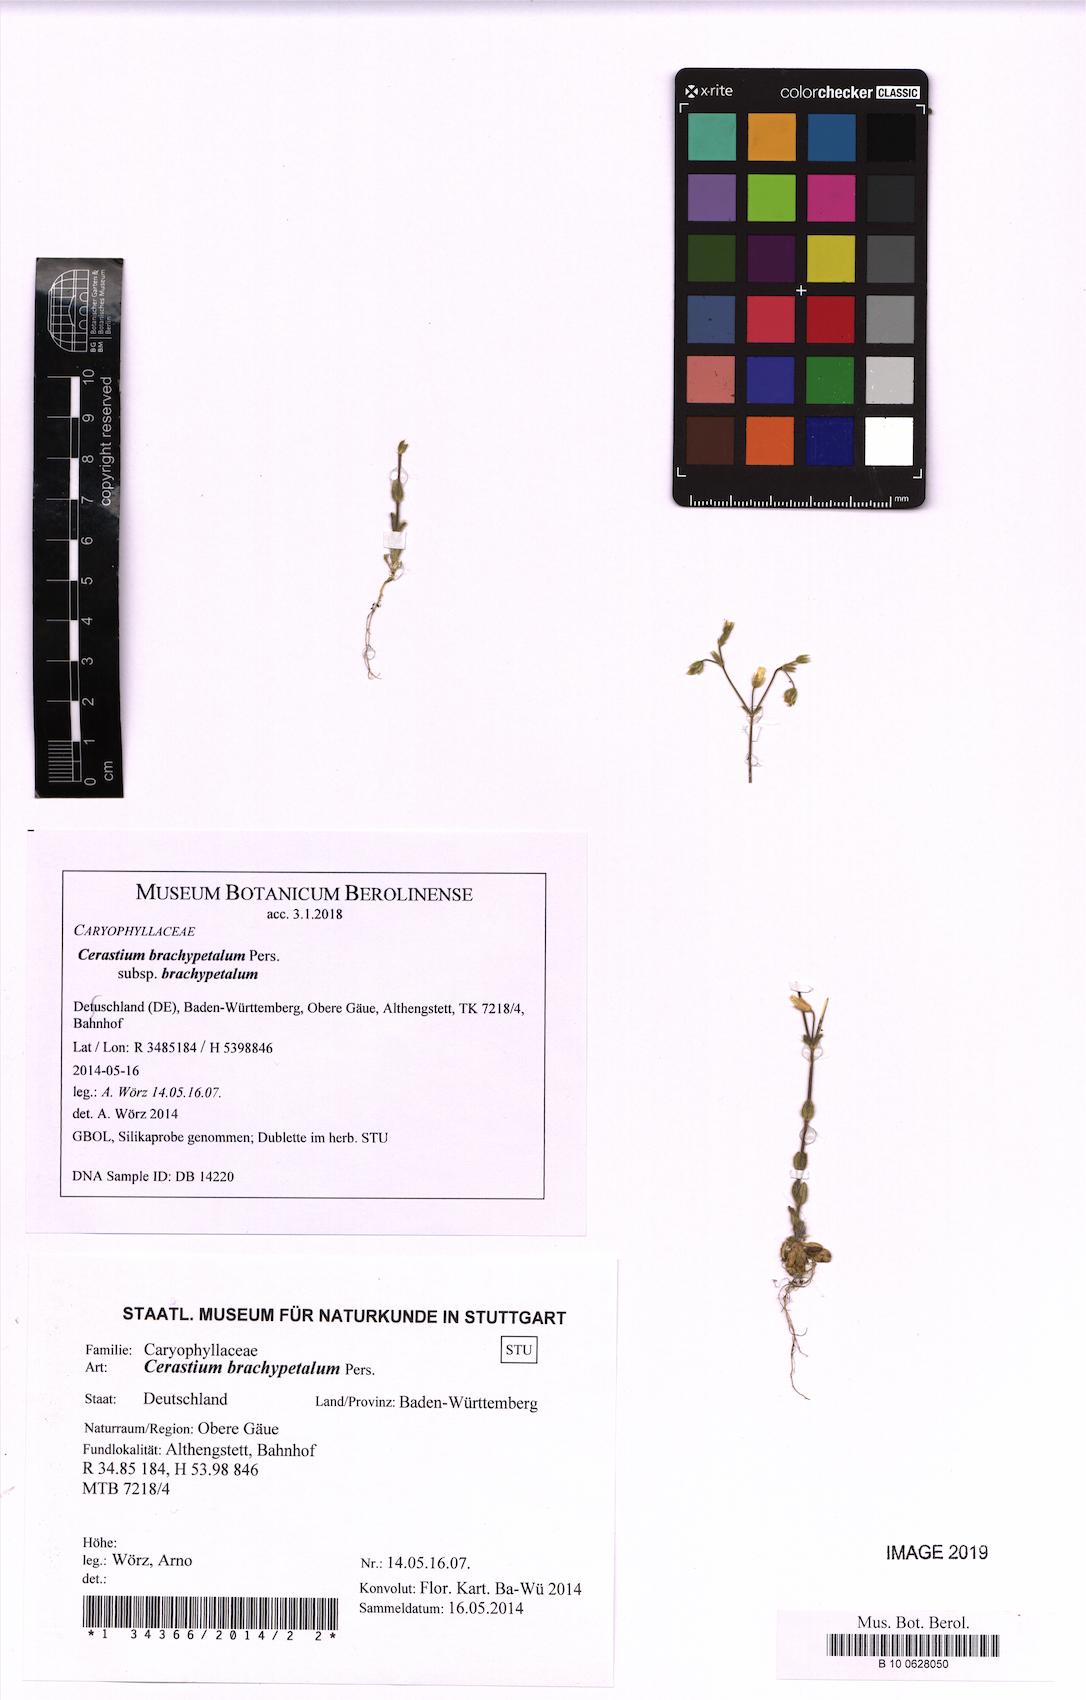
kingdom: Plantae
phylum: Tracheophyta
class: Magnoliopsida
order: Caryophyllales
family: Caryophyllaceae
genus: Cerastium
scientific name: Cerastium brachypetalum
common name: Grey mouse-ear
